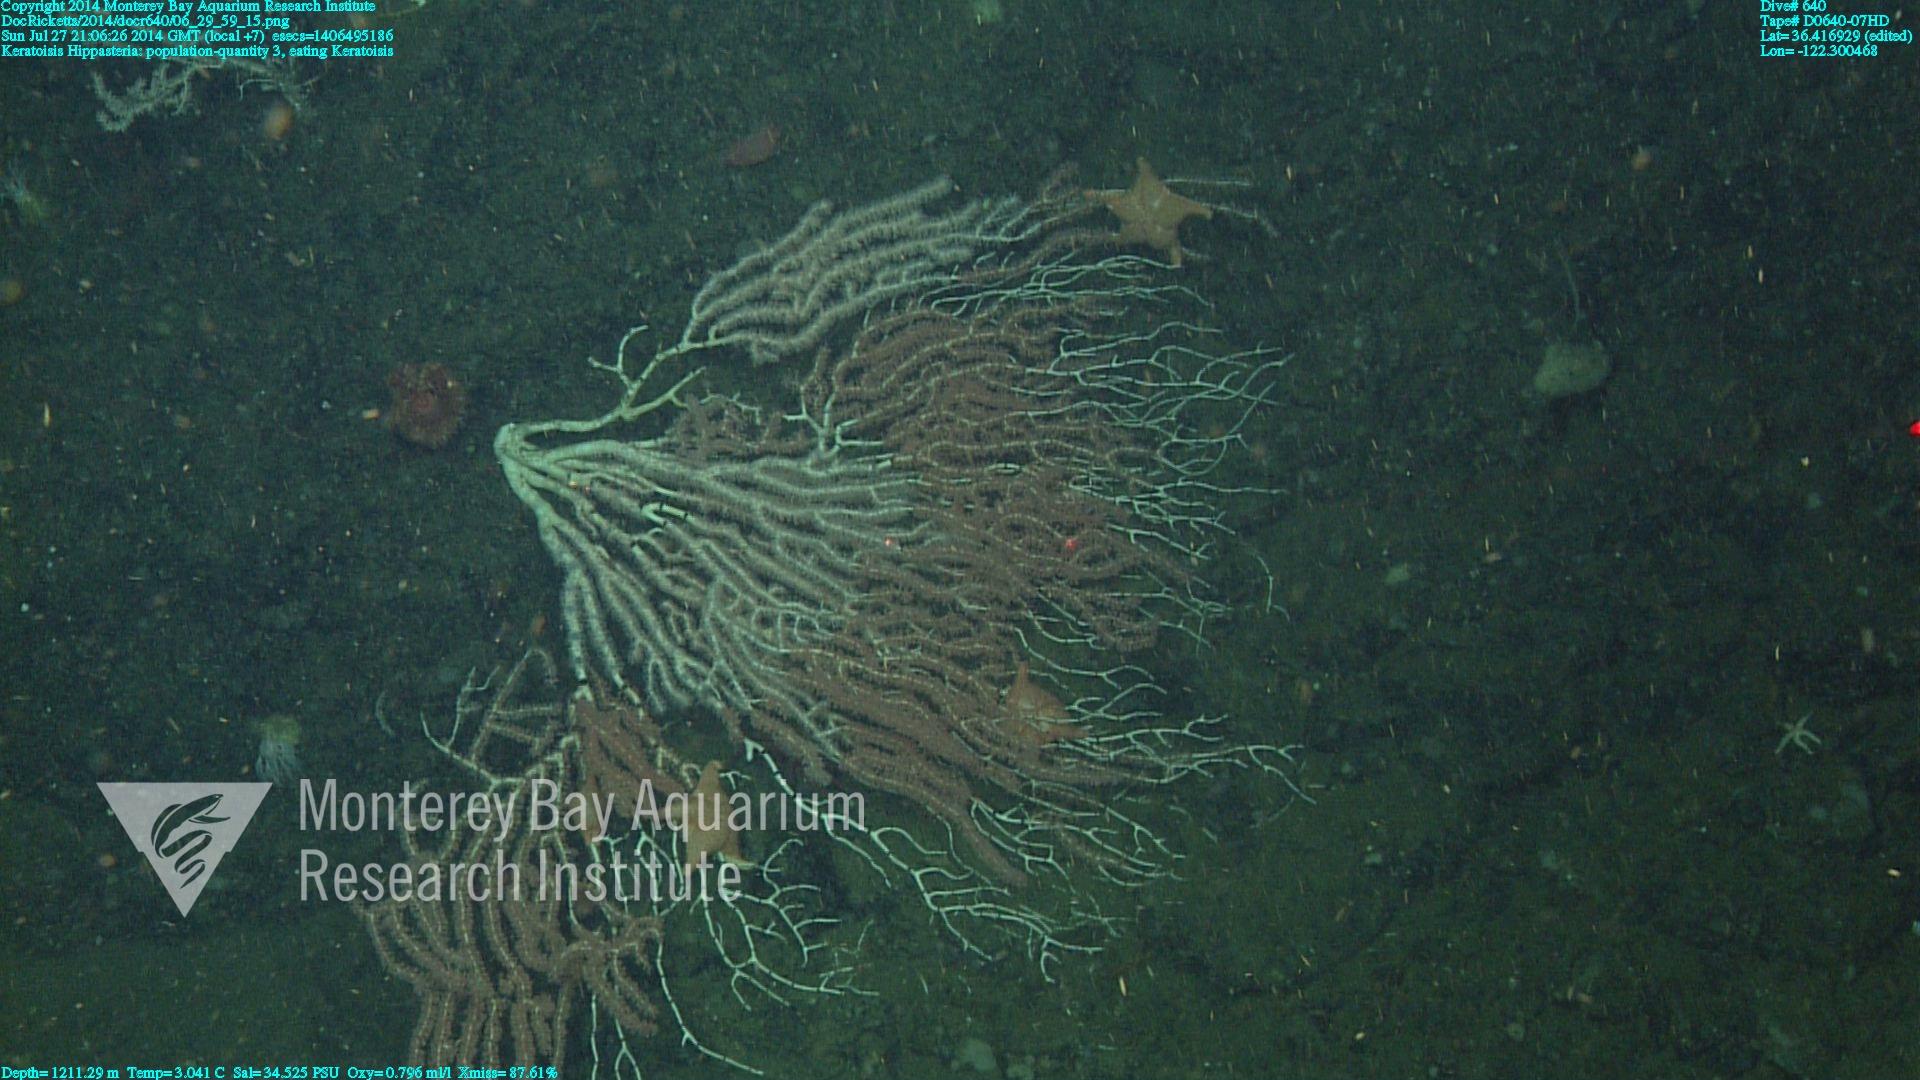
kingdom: Animalia
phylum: Cnidaria
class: Anthozoa
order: Scleralcyonacea
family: Keratoisididae
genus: Keratoisis
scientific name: Keratoisis
